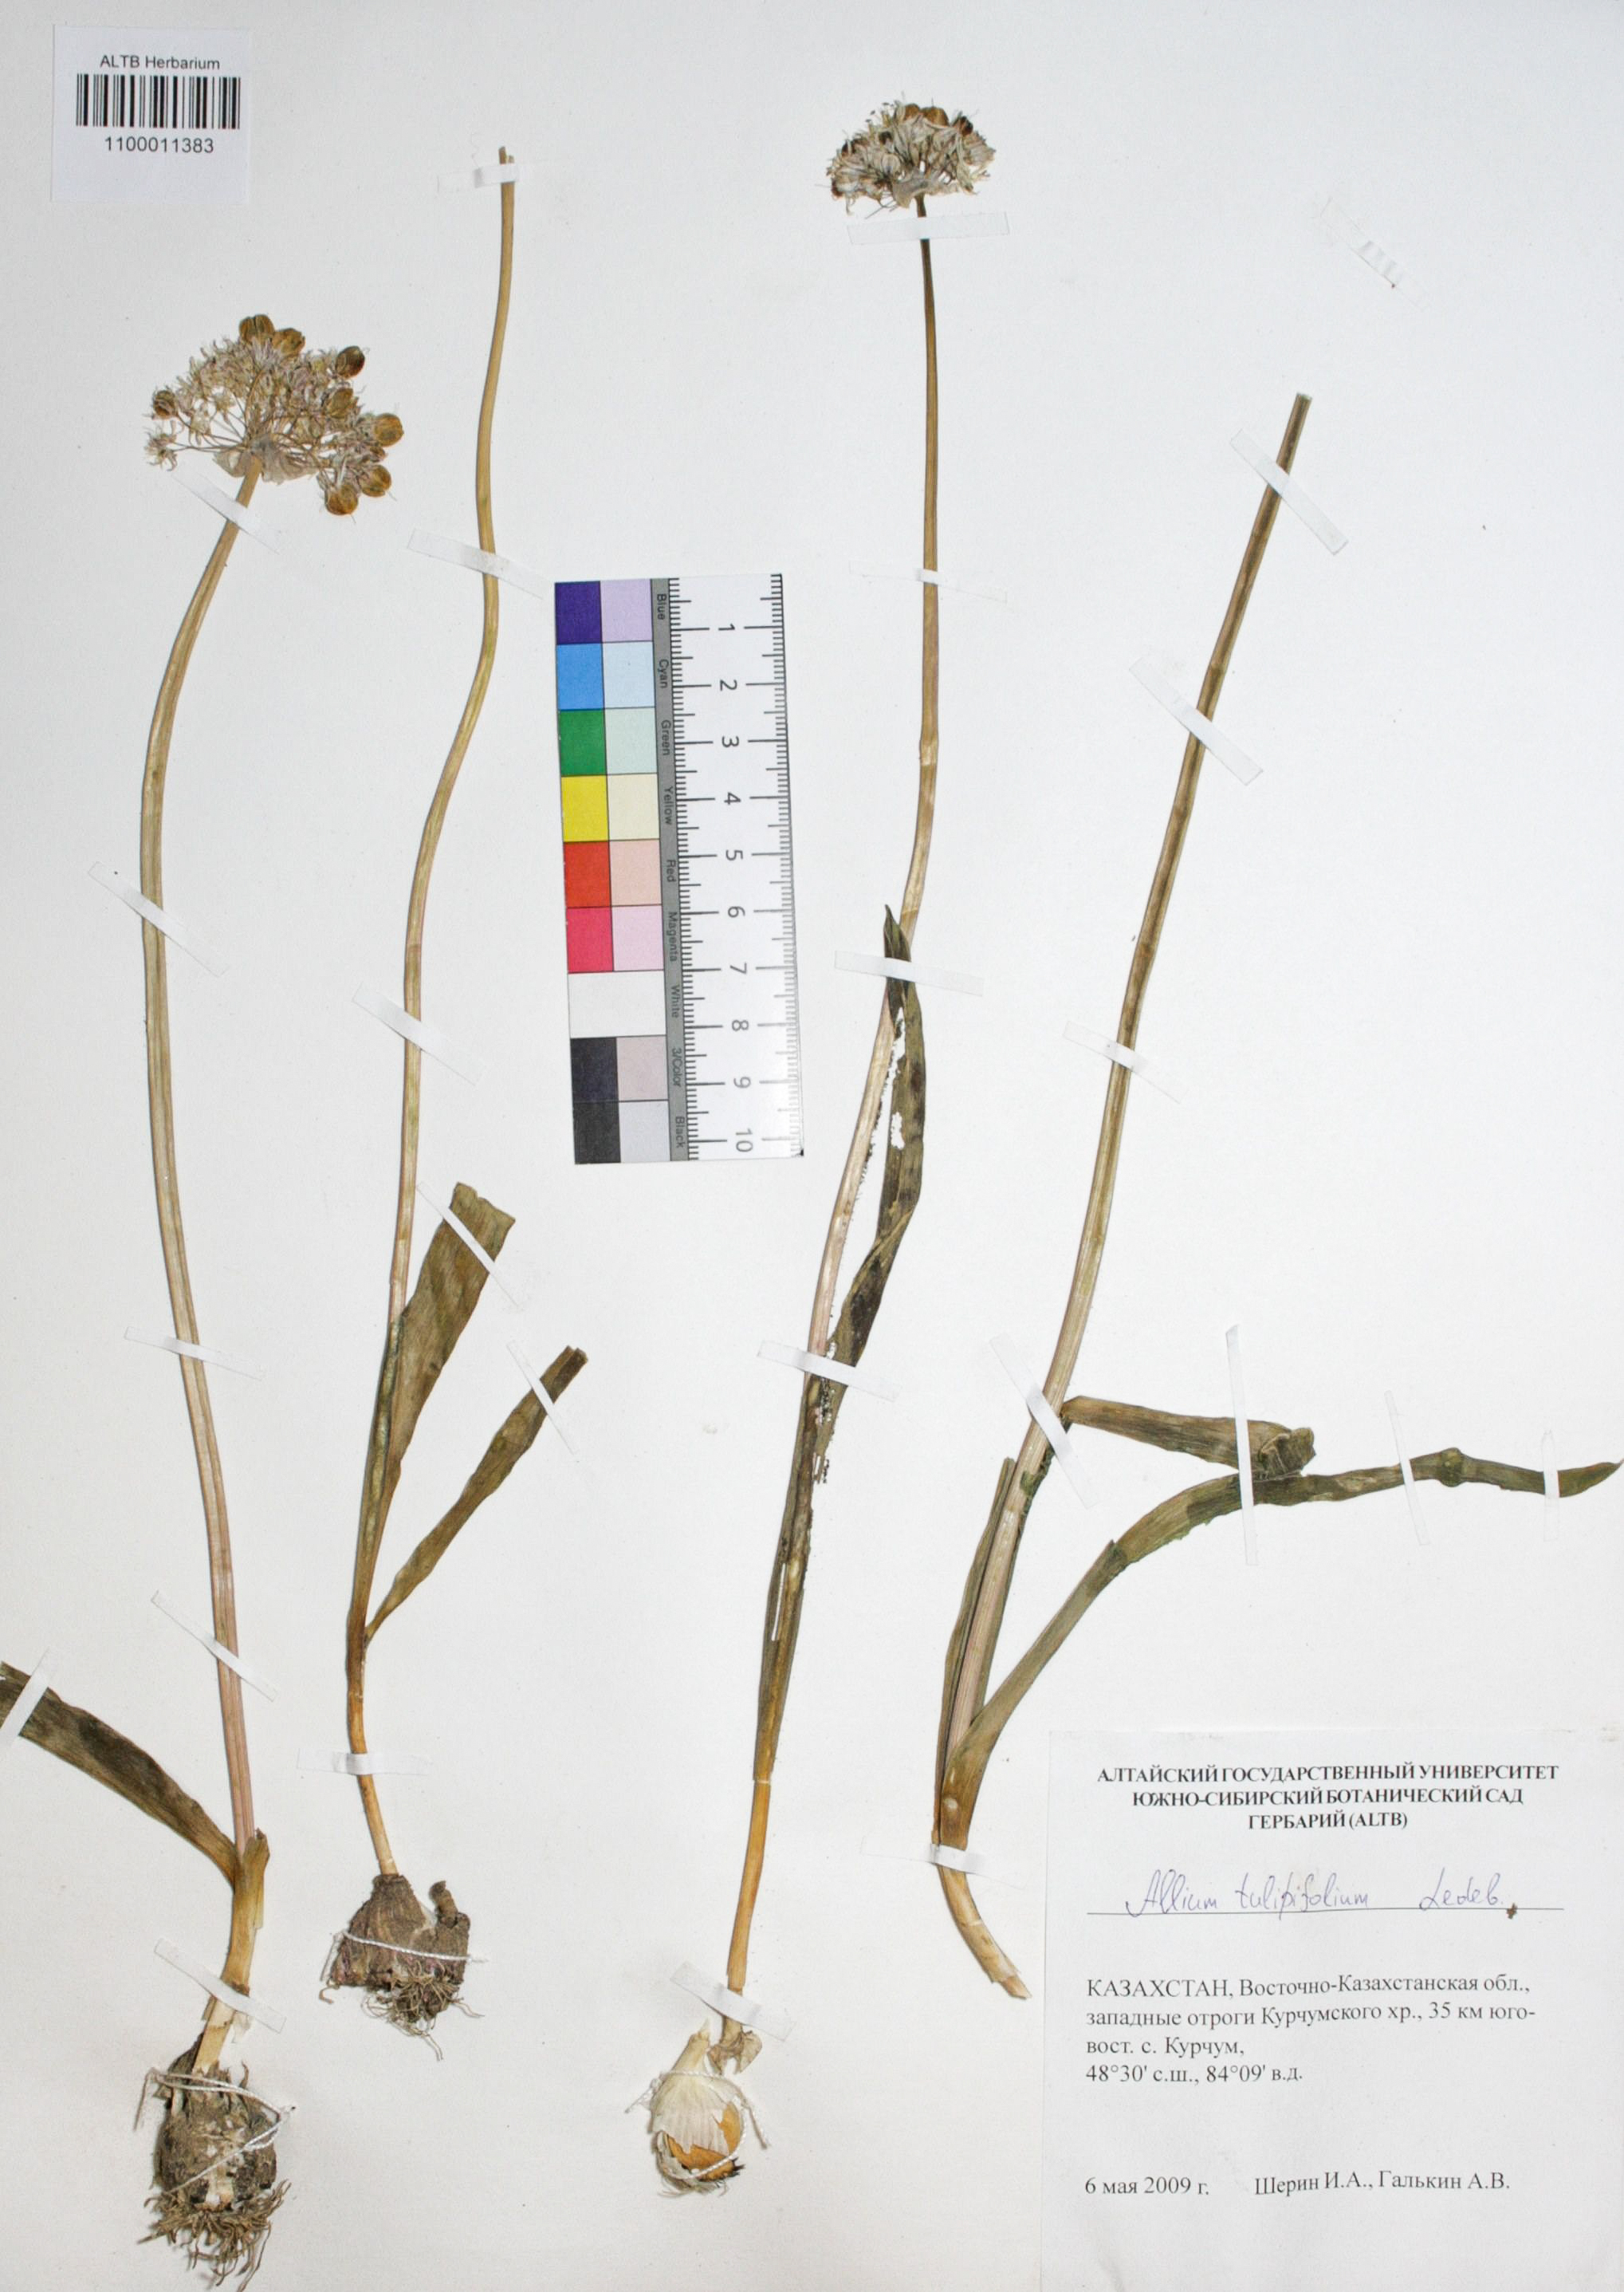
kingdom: Plantae
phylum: Tracheophyta
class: Liliopsida
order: Asparagales
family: Amaryllidaceae
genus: Allium
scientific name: Allium tulipifolium
